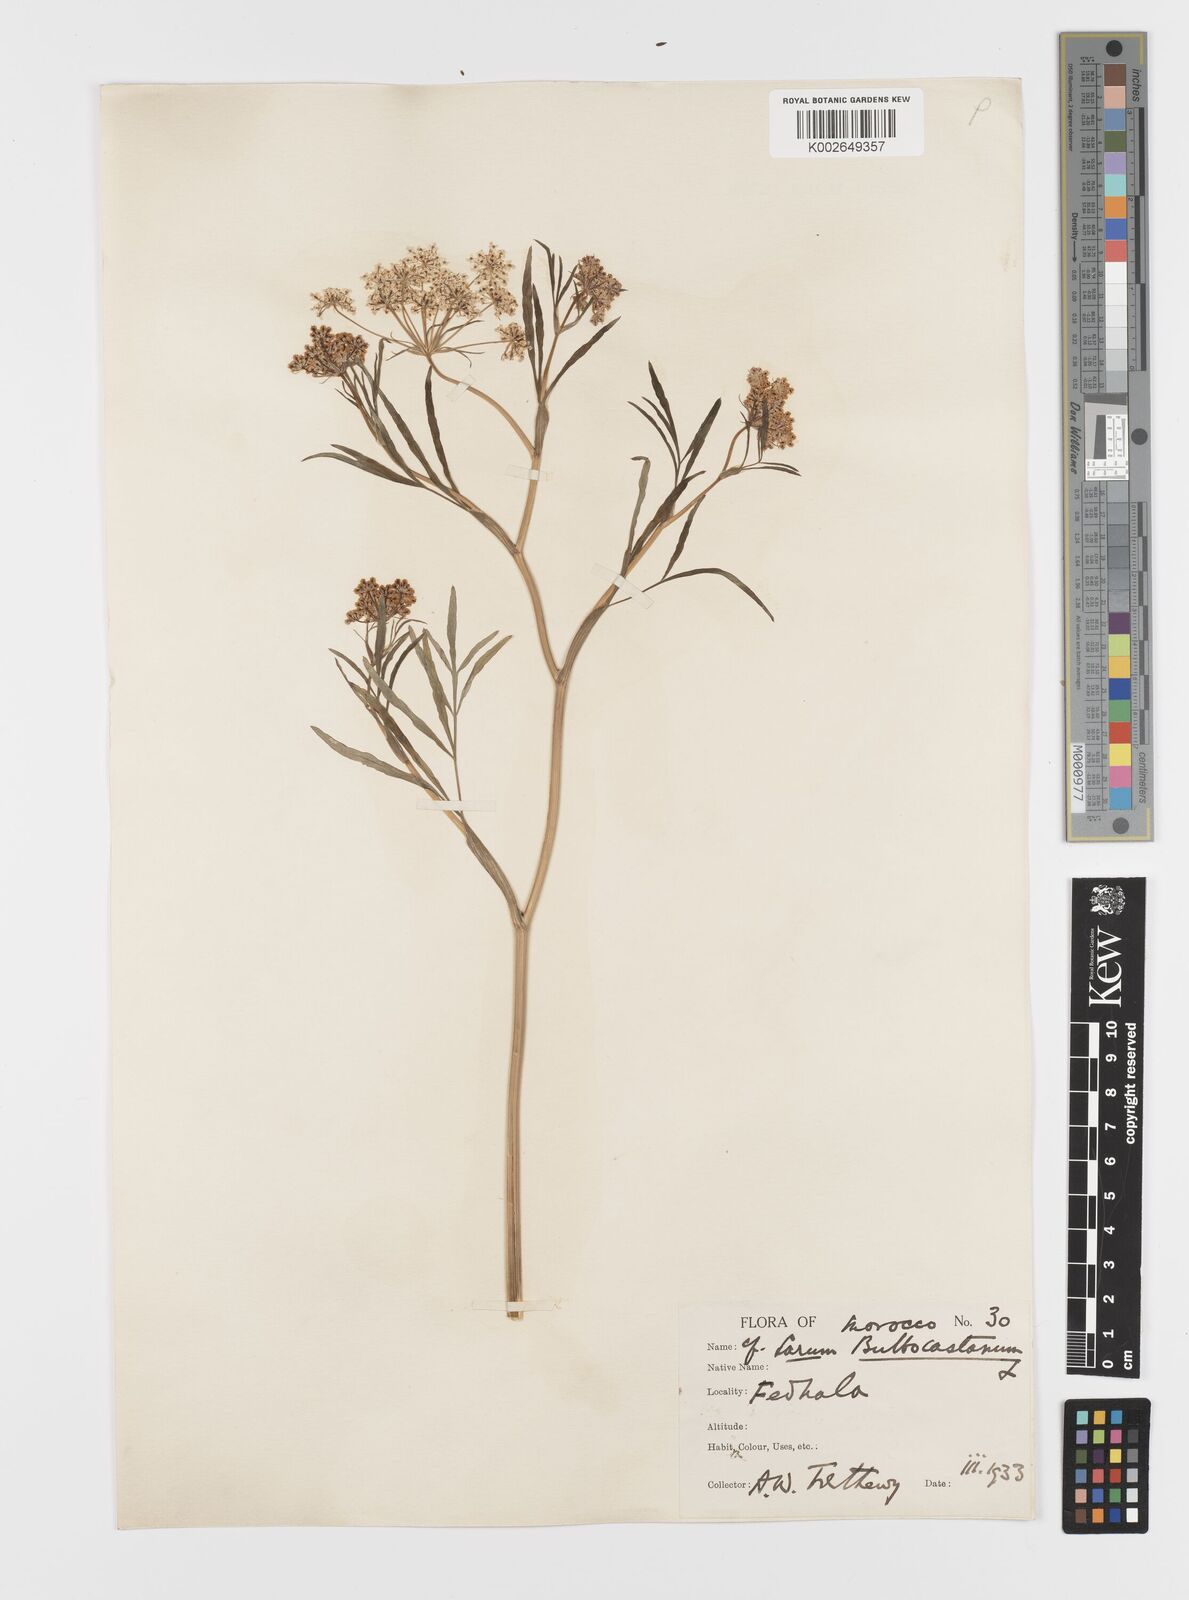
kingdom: Plantae
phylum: Tracheophyta
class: Magnoliopsida
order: Apiales
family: Apiaceae
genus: Bunium
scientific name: Bunium bulbocastanum
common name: Great pignut
